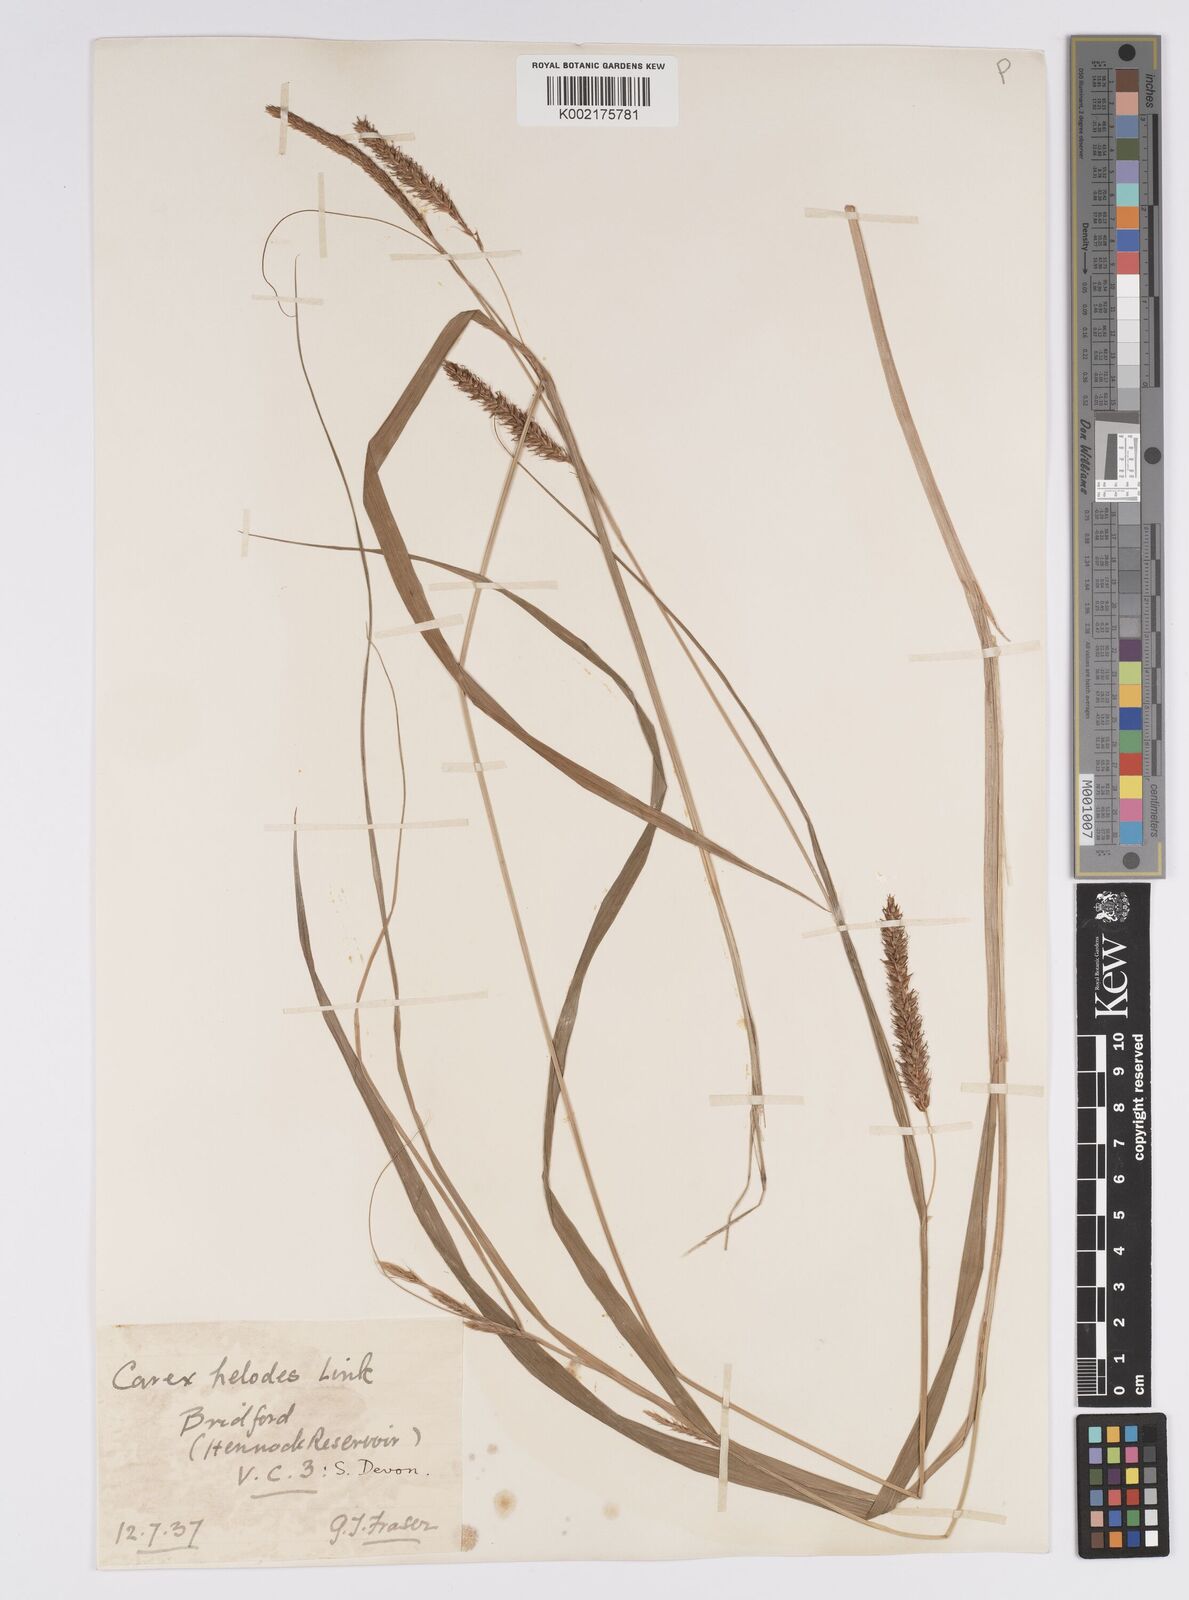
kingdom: Plantae
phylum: Tracheophyta
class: Liliopsida
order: Poales
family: Cyperaceae
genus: Carex
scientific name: Carex laevigata
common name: Smooth-stalked sedge
